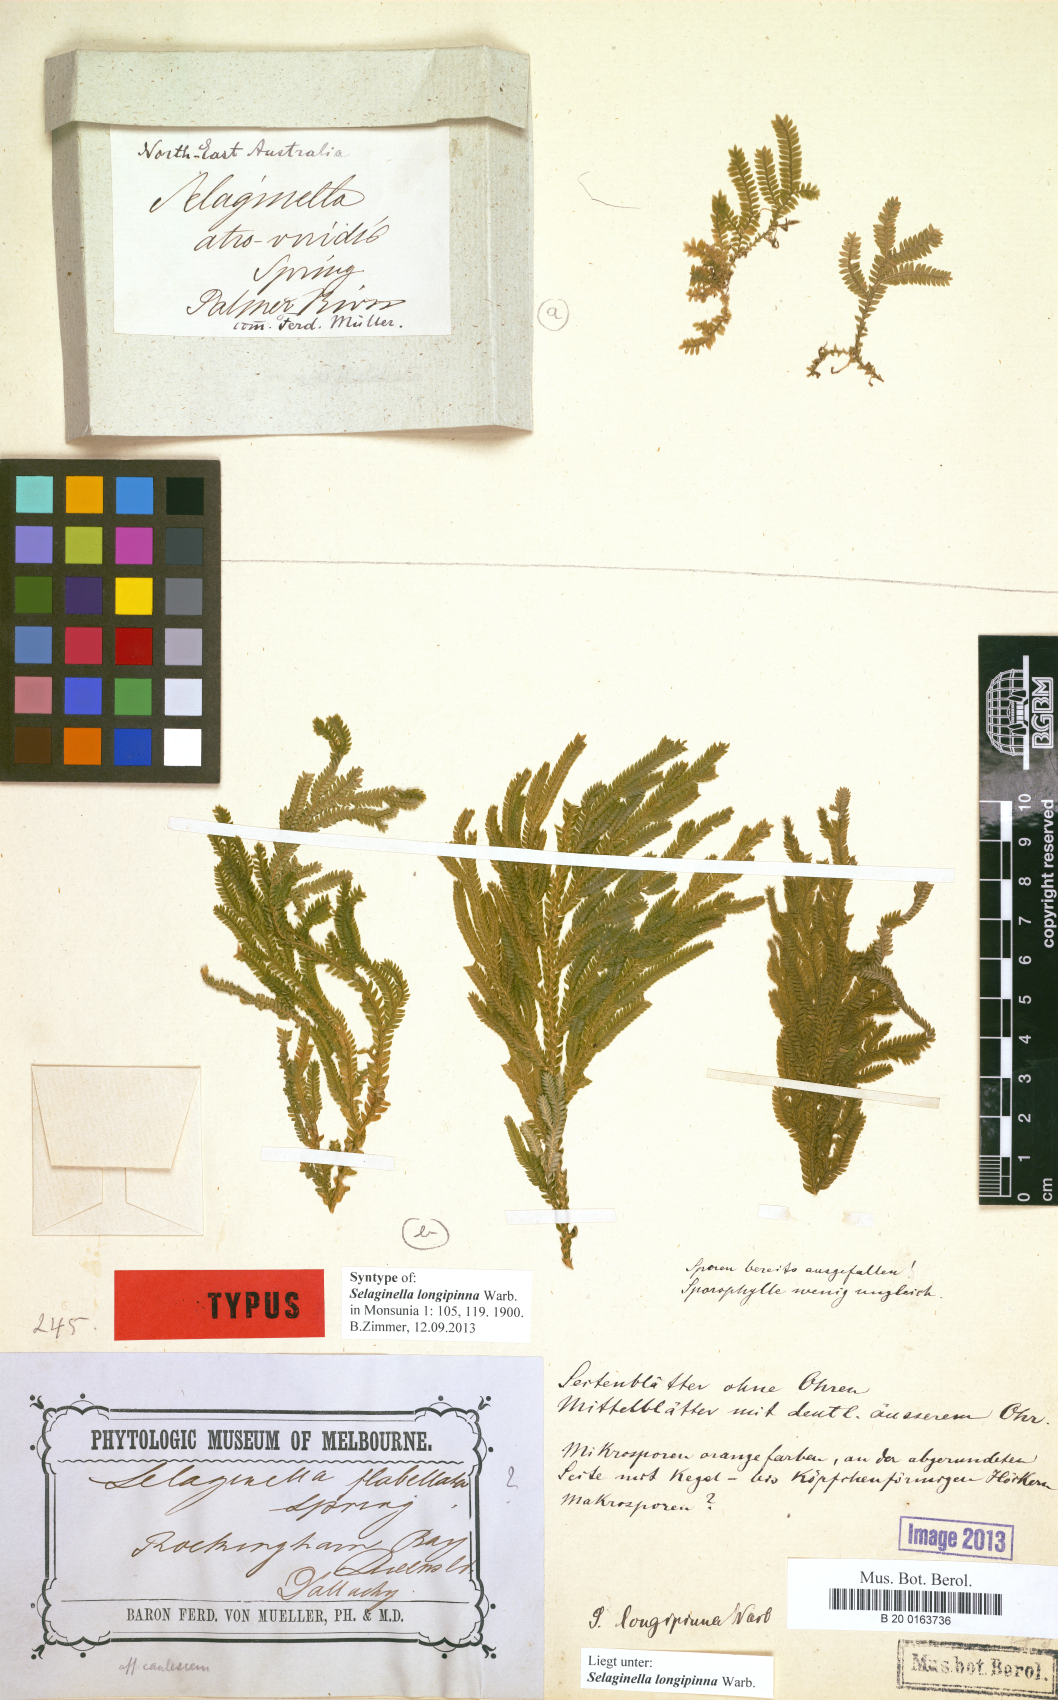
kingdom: Plantae
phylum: Tracheophyta
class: Lycopodiopsida
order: Selaginellales
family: Selaginellaceae
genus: Selaginella
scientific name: Selaginella longipinna
